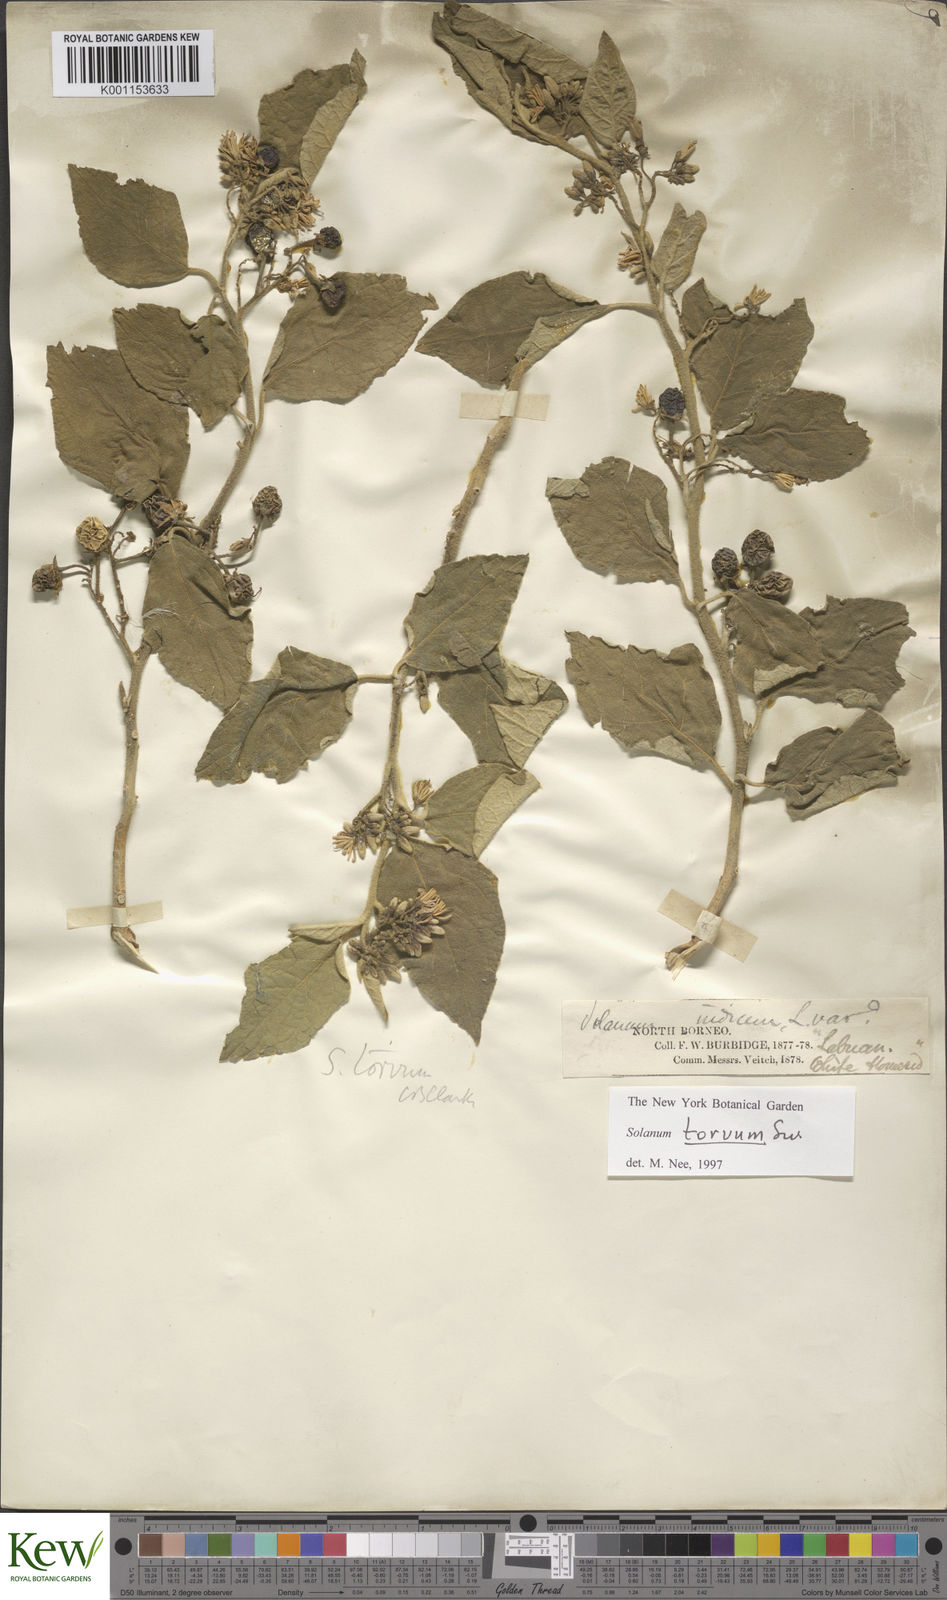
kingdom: Plantae
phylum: Tracheophyta
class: Magnoliopsida
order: Solanales
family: Solanaceae
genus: Solanum
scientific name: Solanum torvum
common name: Turkey berry
